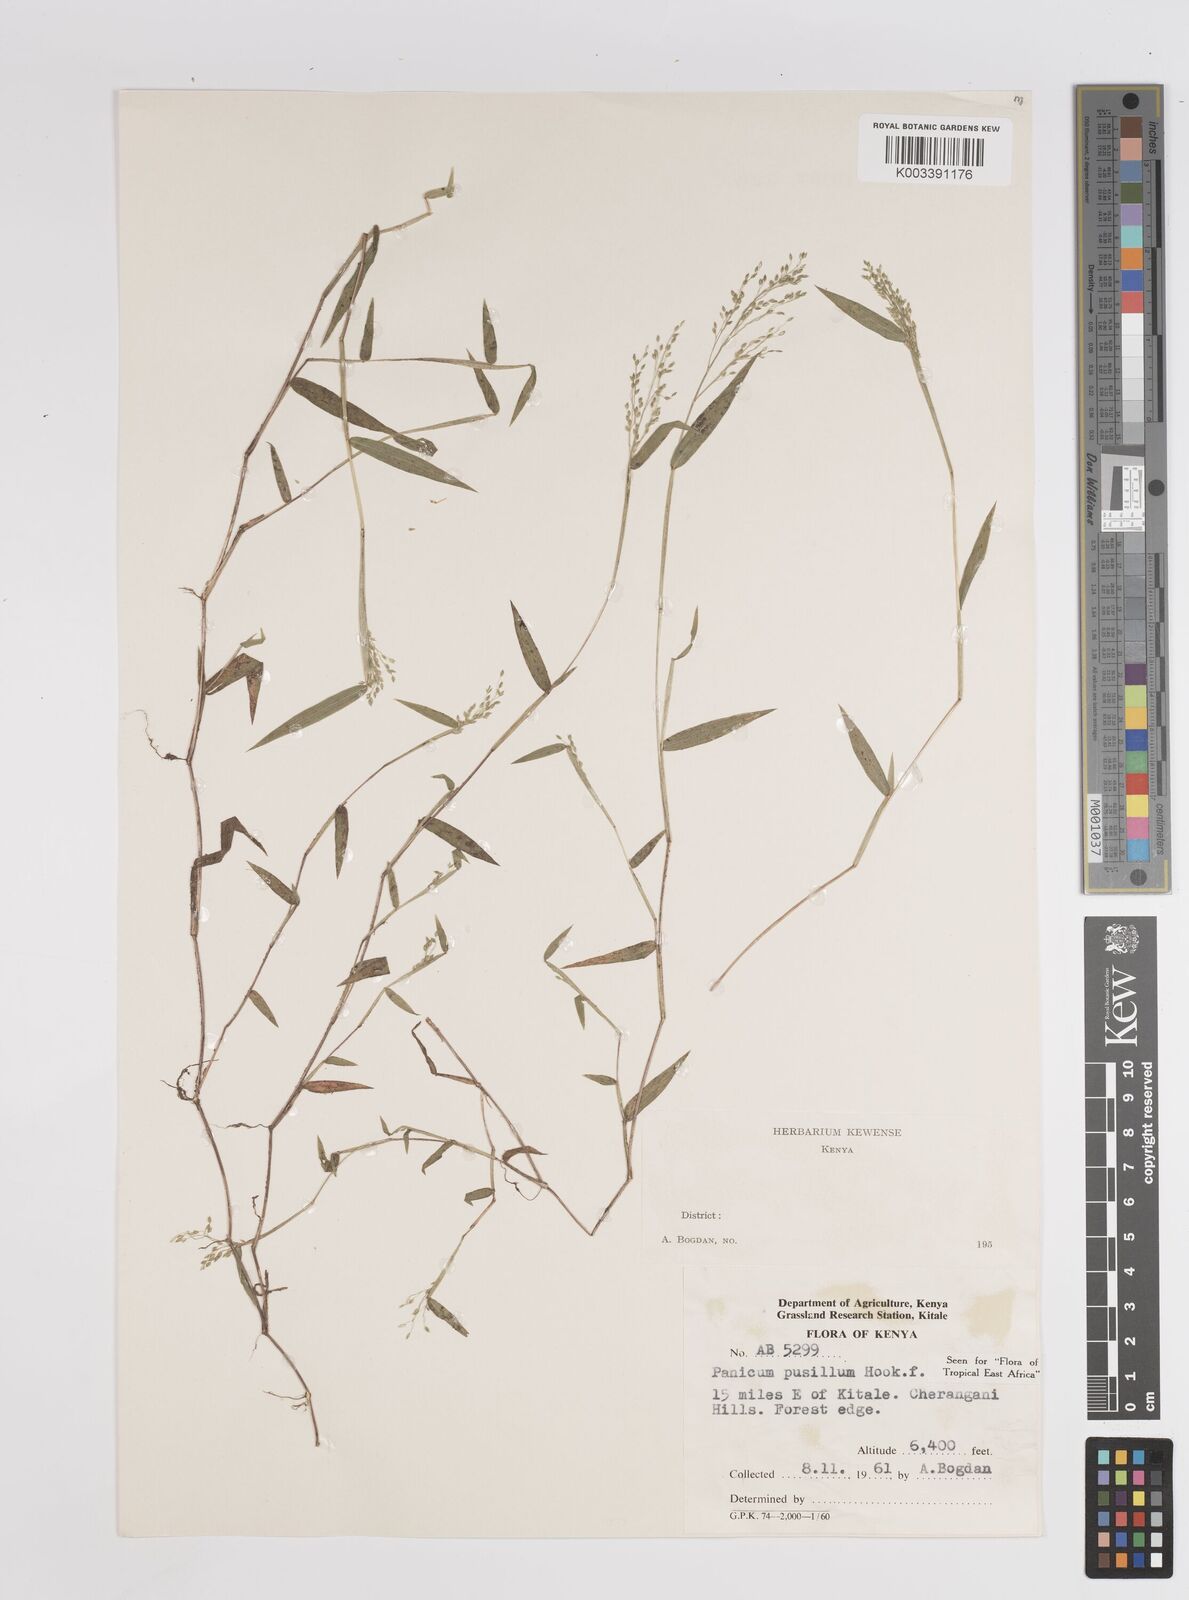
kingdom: Plantae
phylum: Tracheophyta
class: Liliopsida
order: Poales
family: Poaceae
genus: Panicum
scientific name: Panicum pusillum
